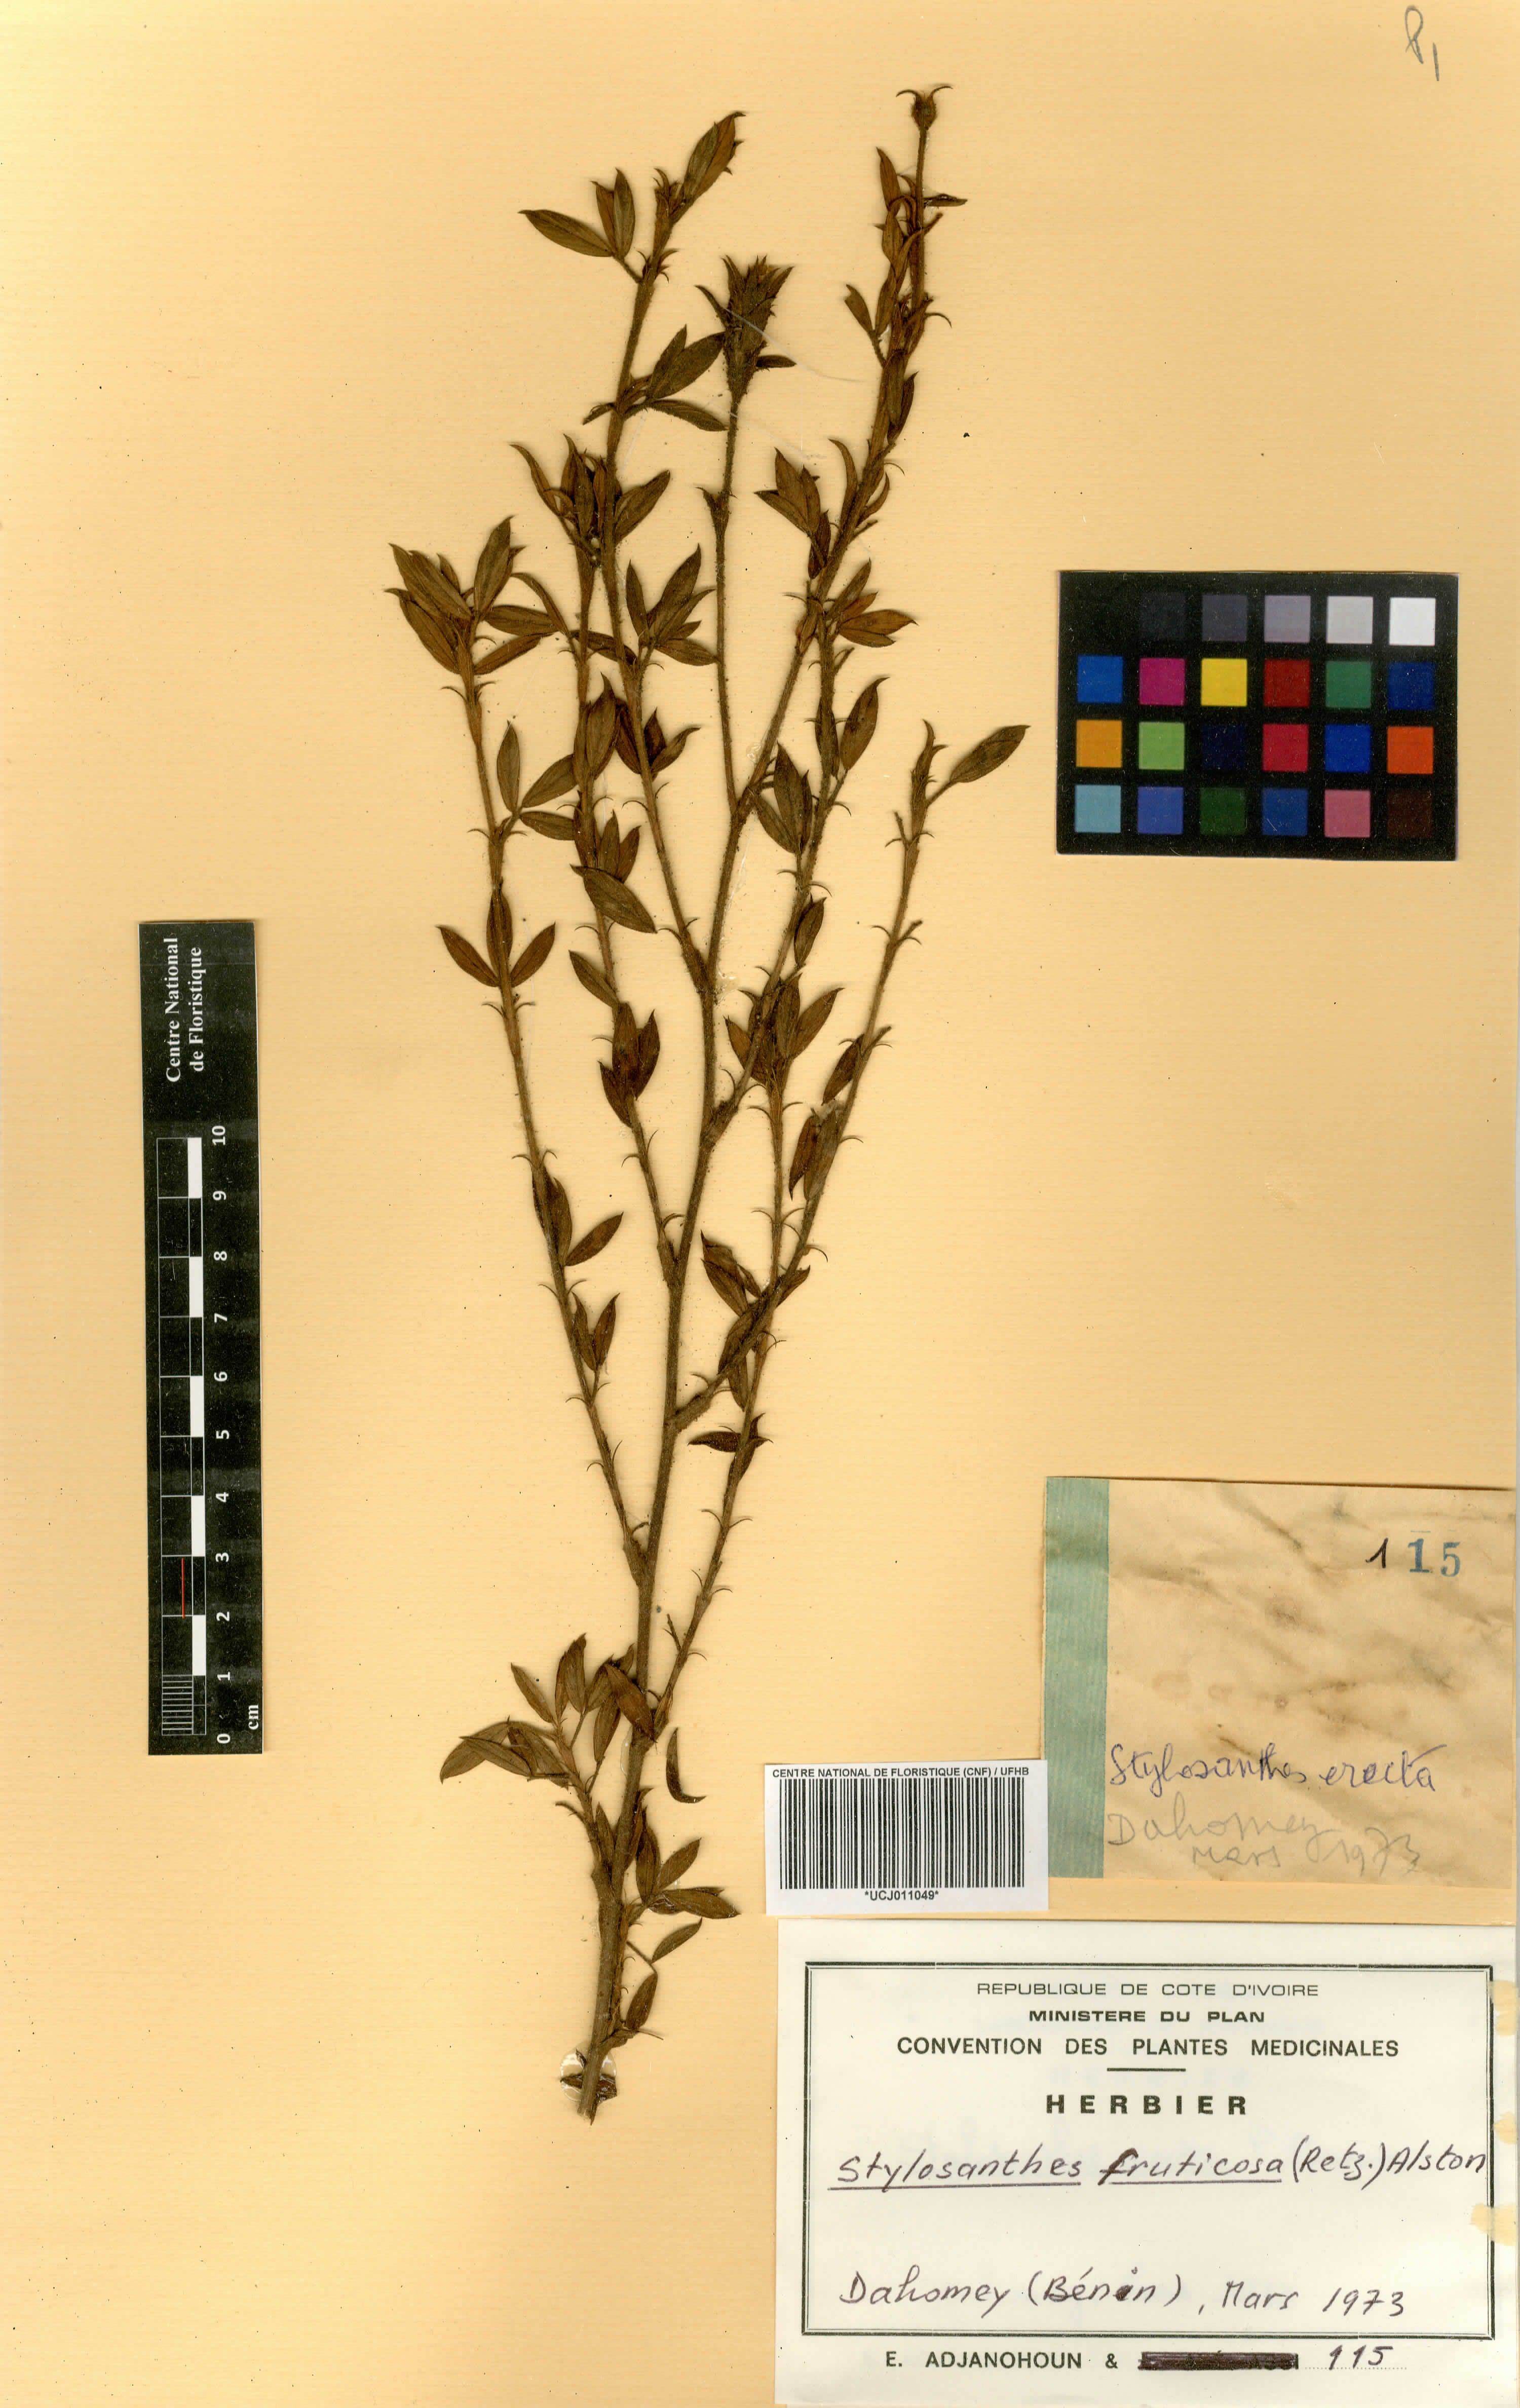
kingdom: Plantae
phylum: Tracheophyta
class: Magnoliopsida
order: Fabales
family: Fabaceae
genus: Stylosanthes
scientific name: Stylosanthes fruticosa
